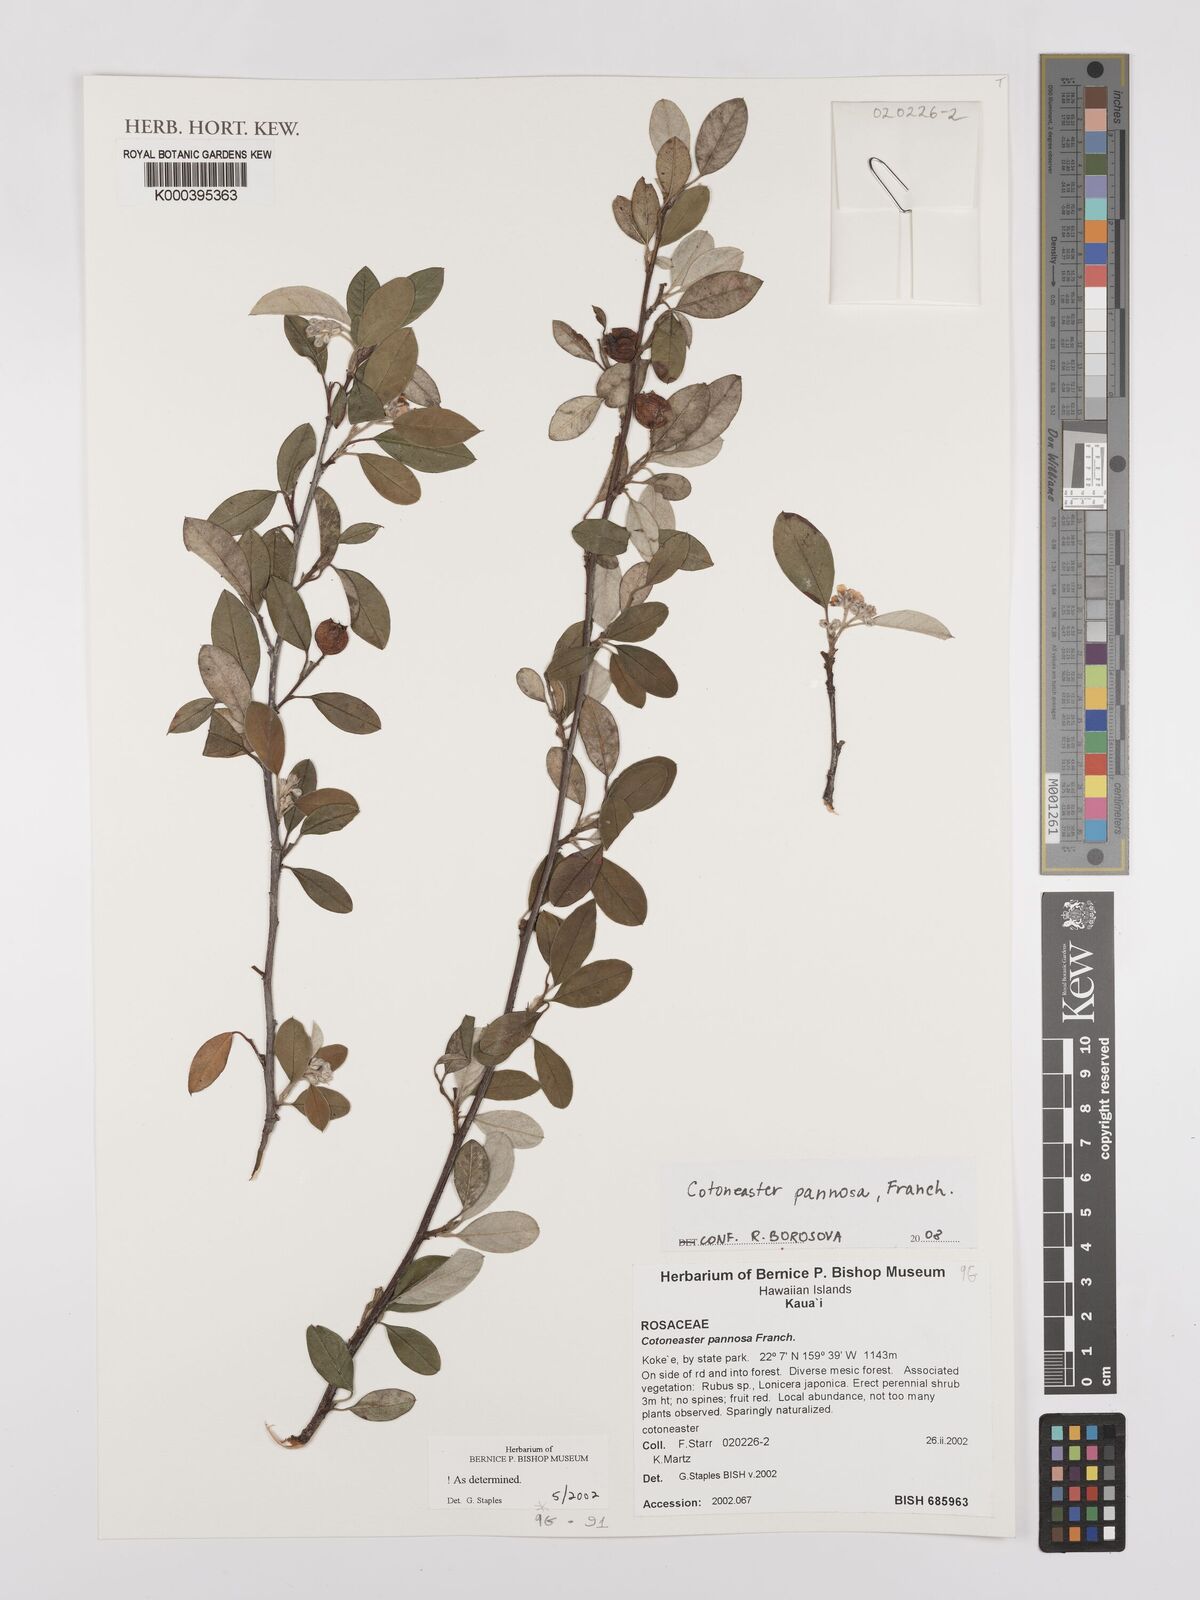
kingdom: Plantae
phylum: Tracheophyta
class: Magnoliopsida
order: Rosales
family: Rosaceae
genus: Cotoneaster
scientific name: Cotoneaster pannosus
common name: Silverleaf cotoneaster
